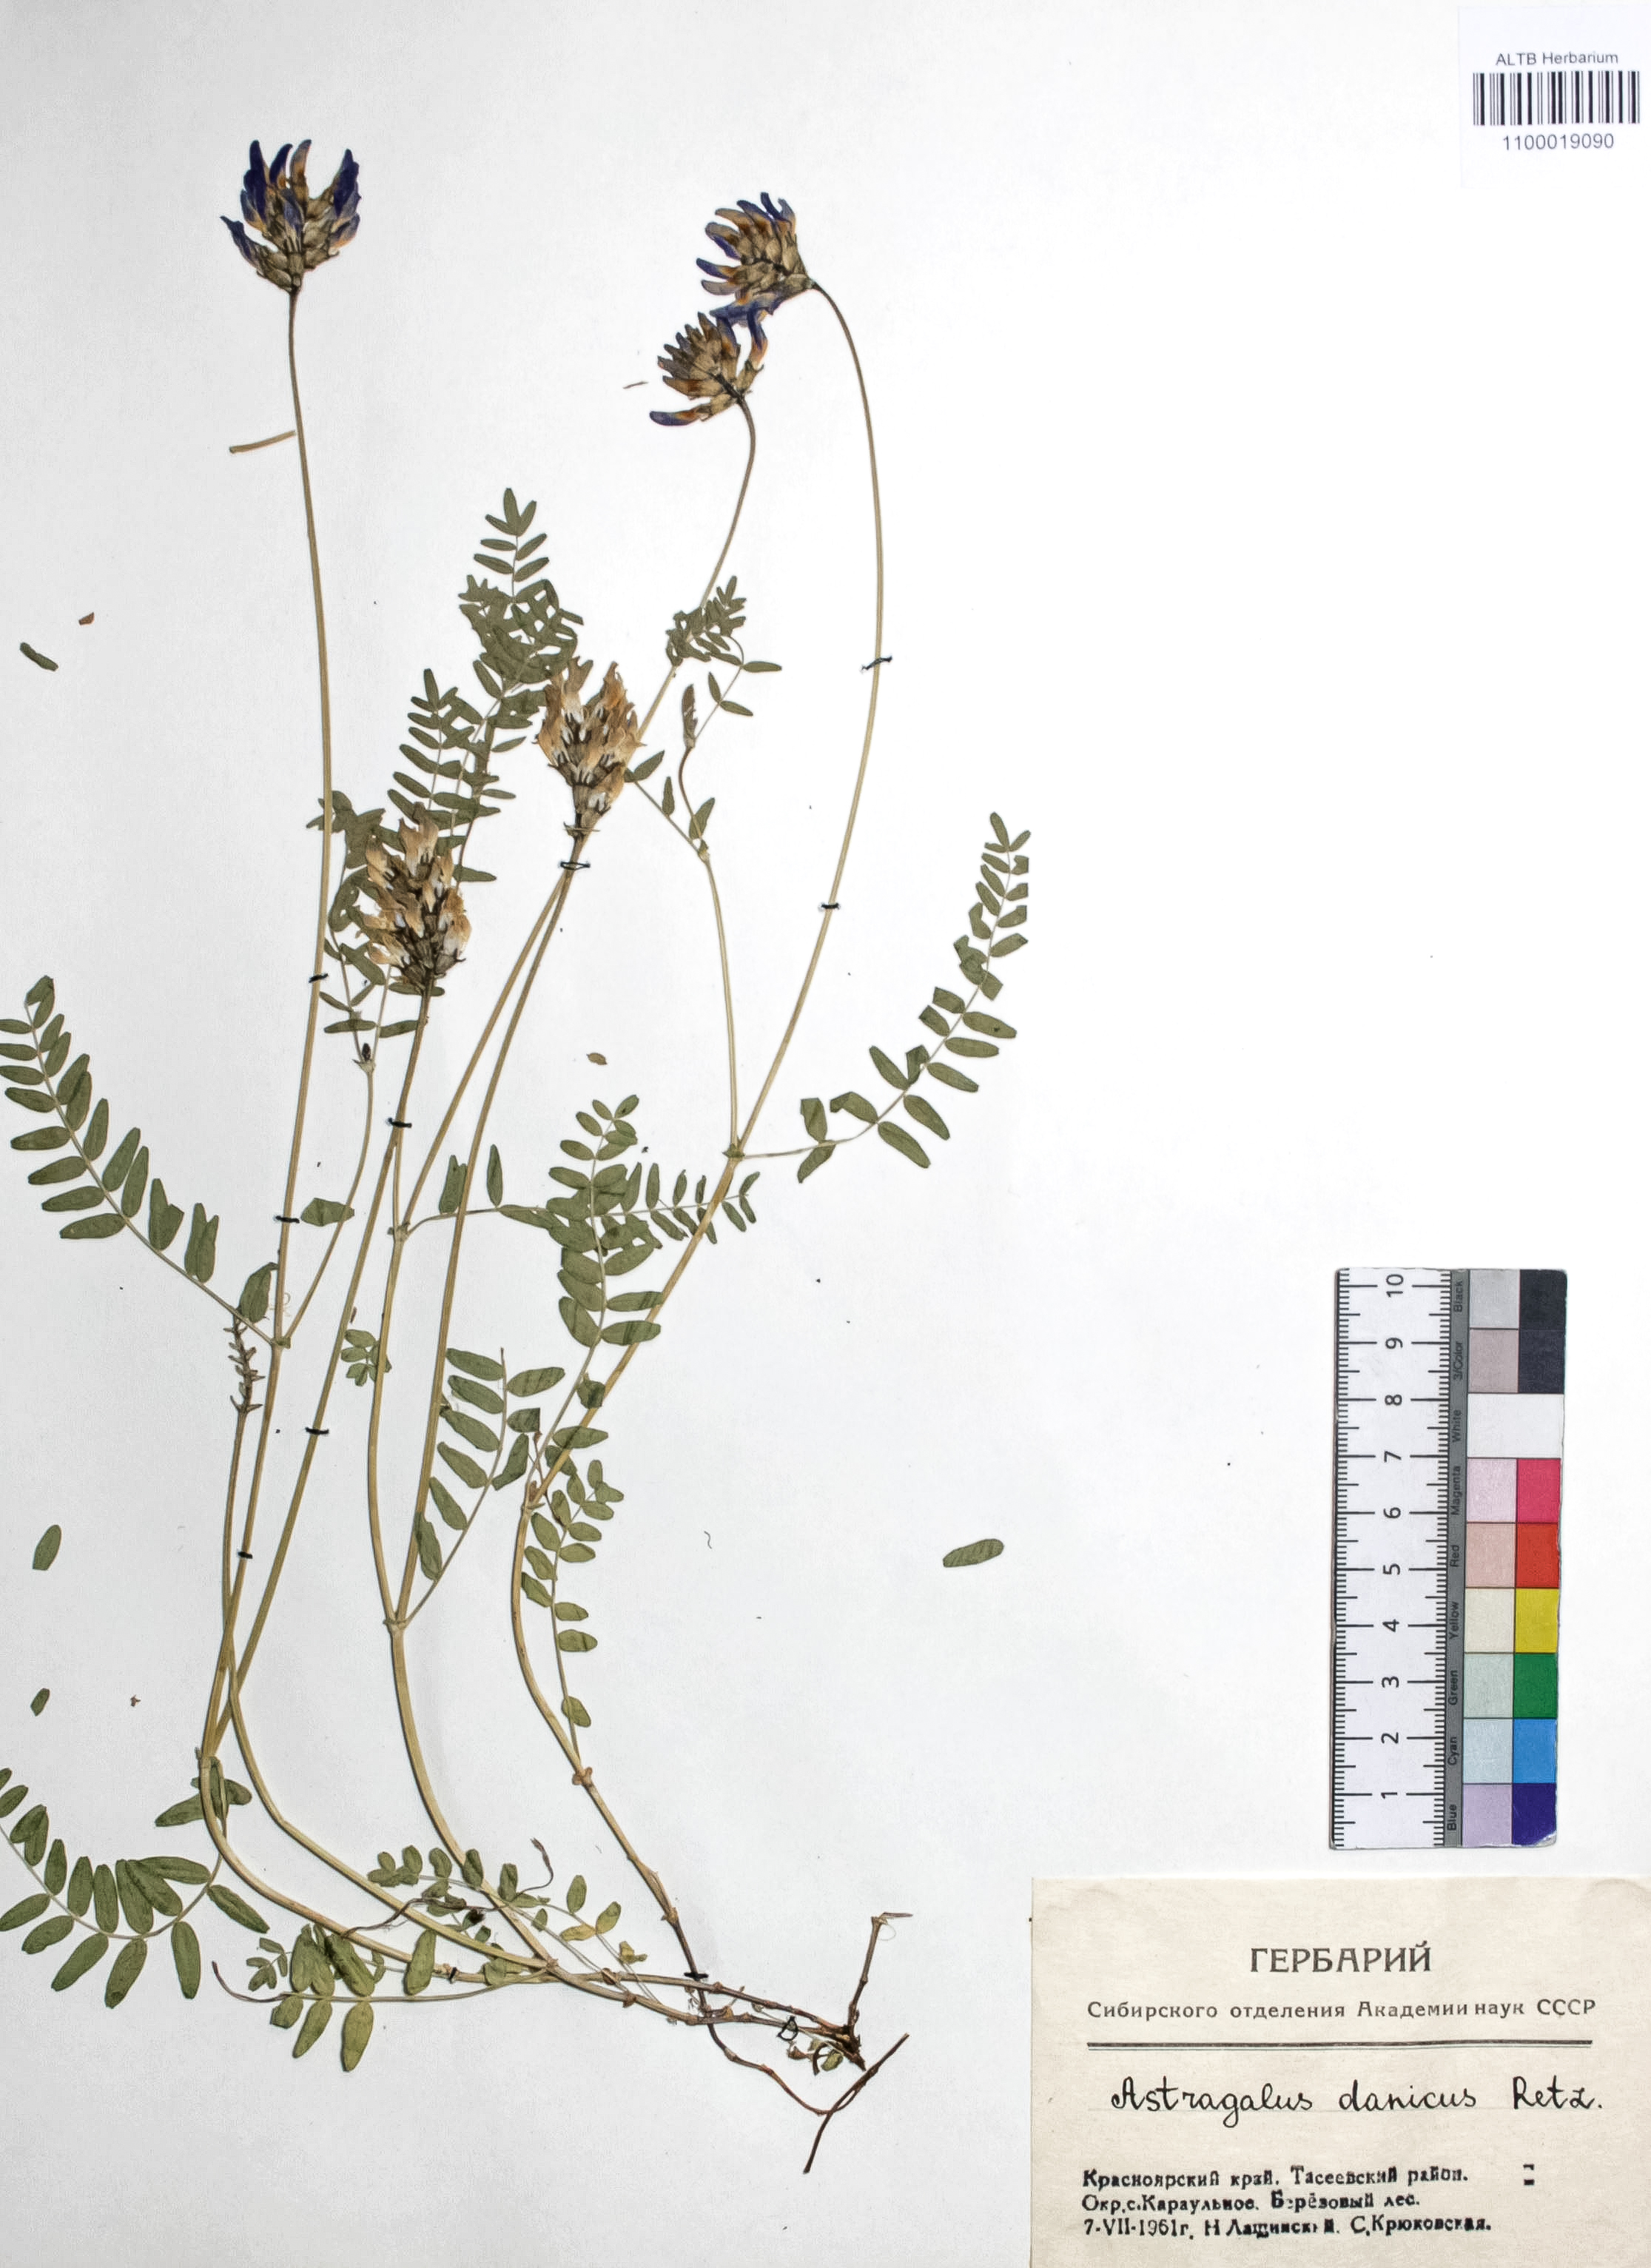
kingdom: Plantae
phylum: Tracheophyta
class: Magnoliopsida
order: Fabales
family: Fabaceae
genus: Astragalus
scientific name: Astragalus danicus
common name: Purple milk-vetch
